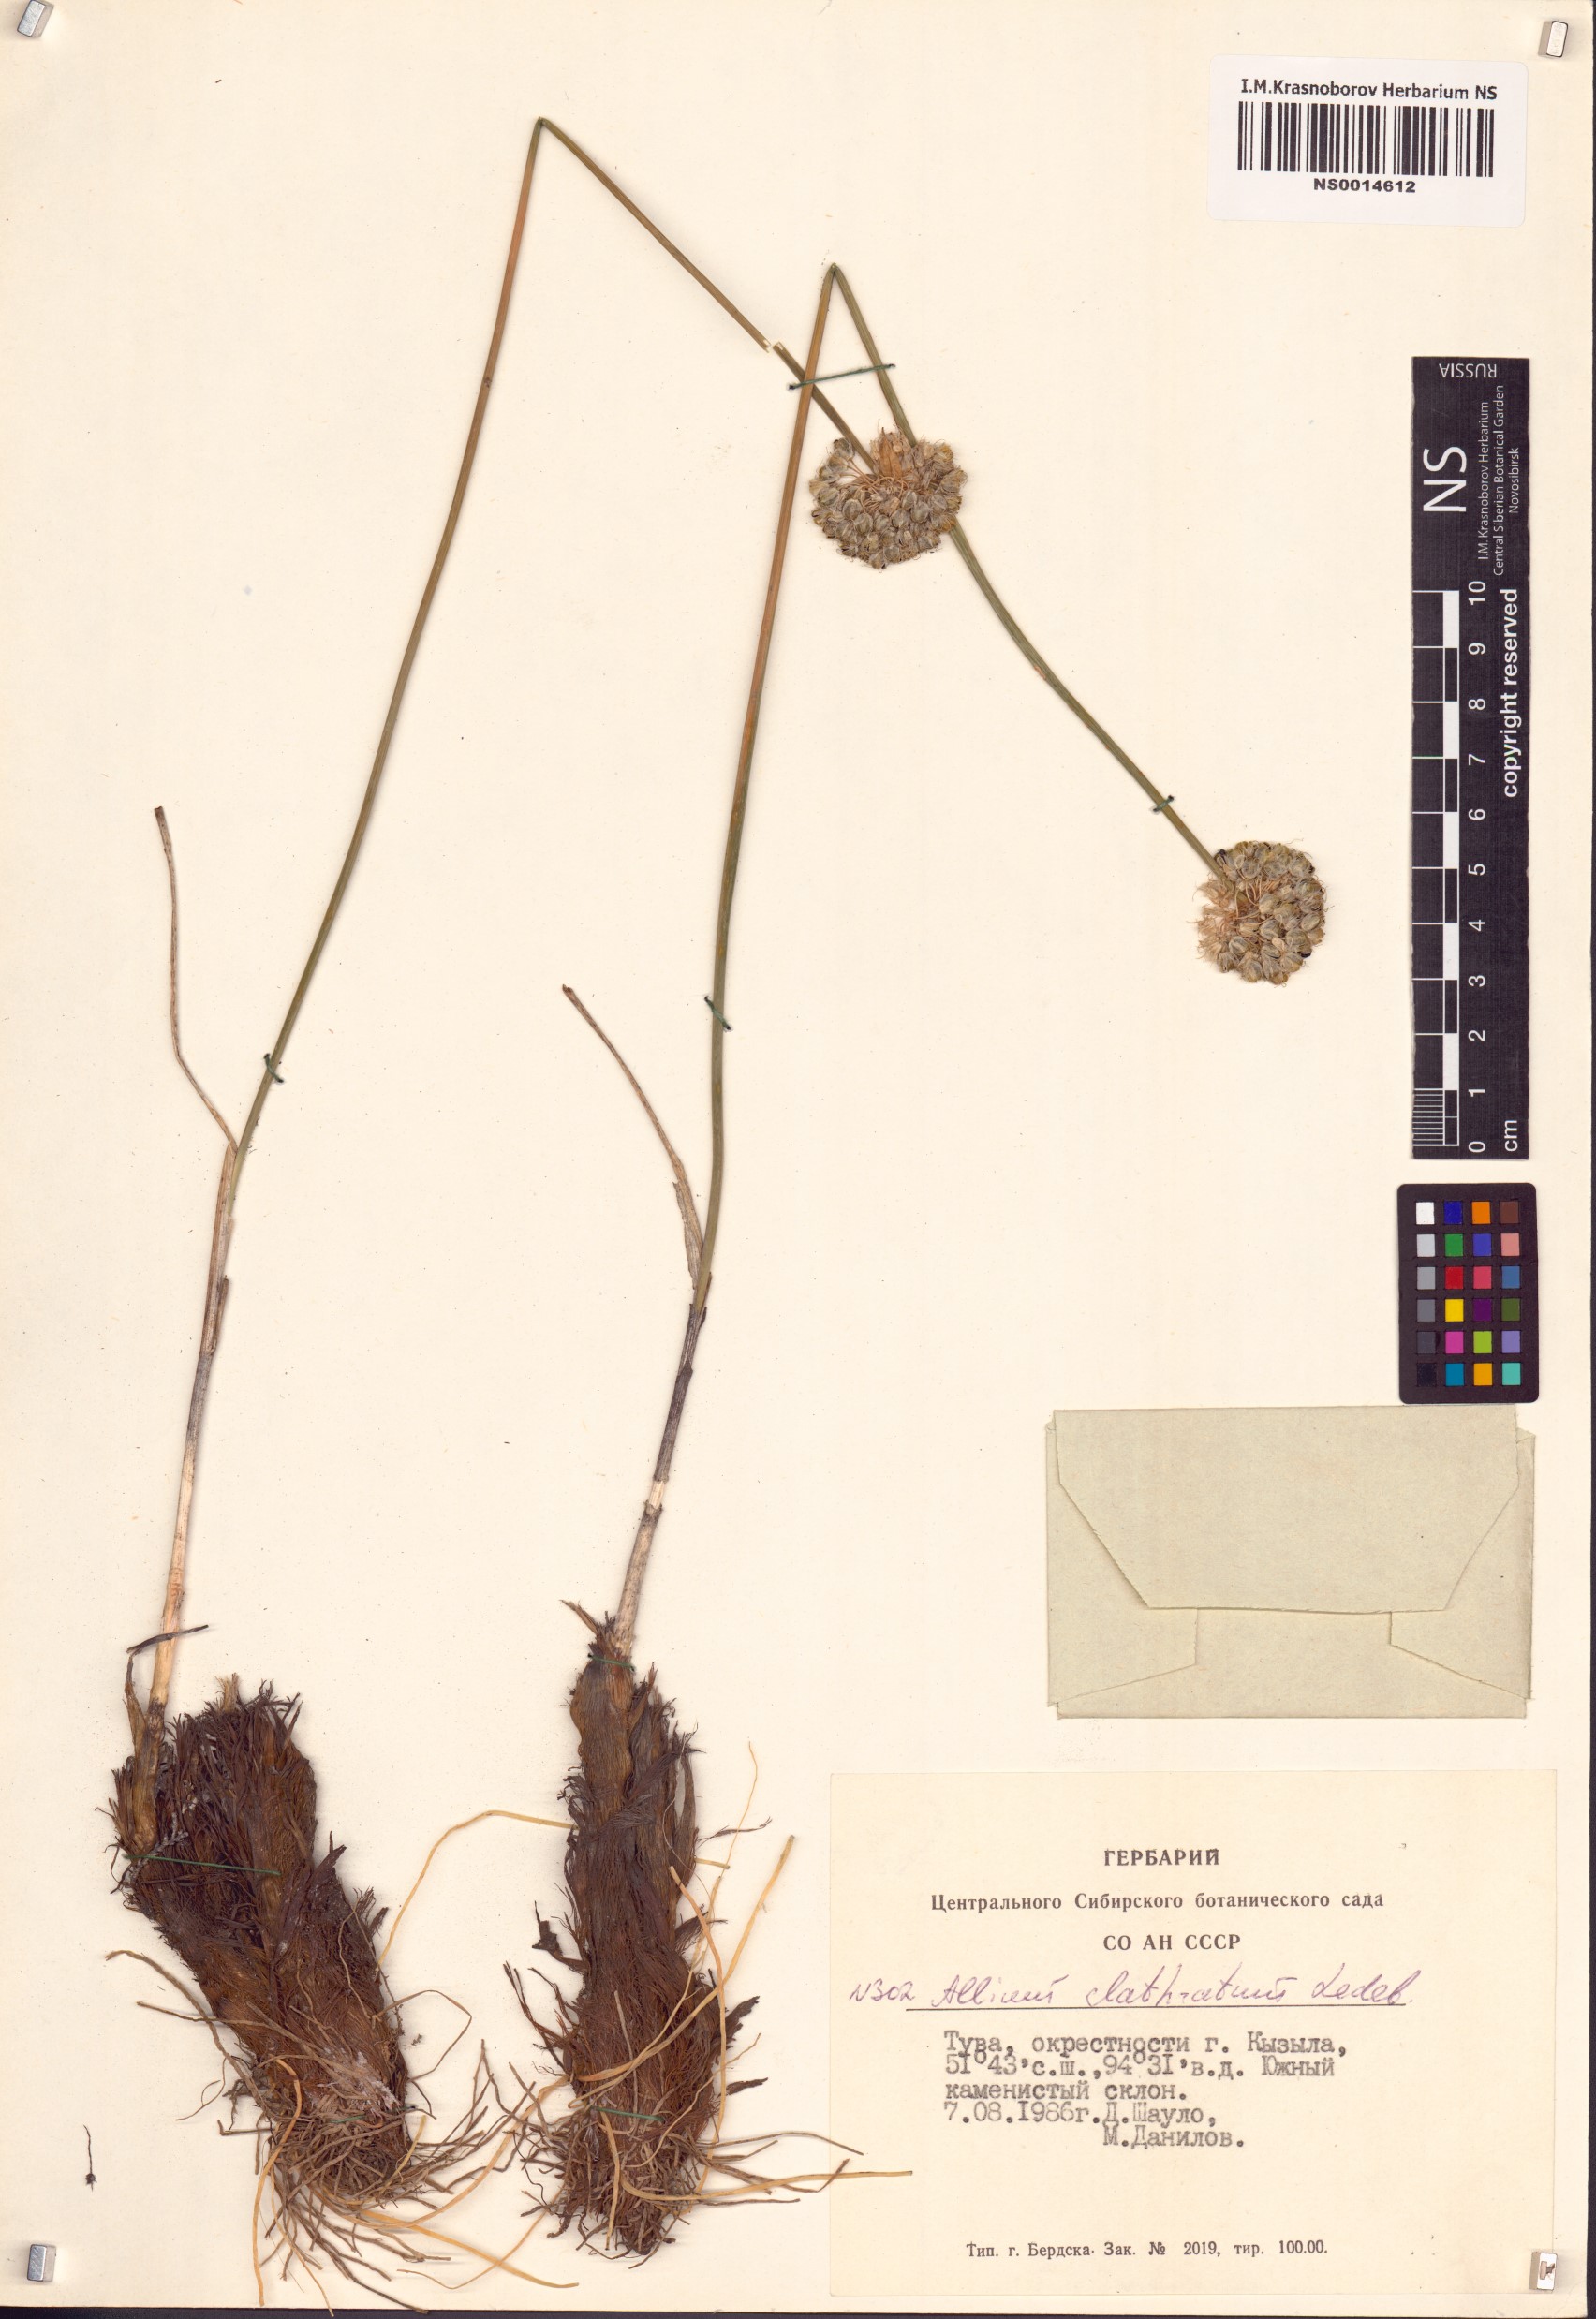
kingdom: Plantae
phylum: Tracheophyta
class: Liliopsida
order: Asparagales
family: Amaryllidaceae
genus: Allium
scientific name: Allium clathratum
